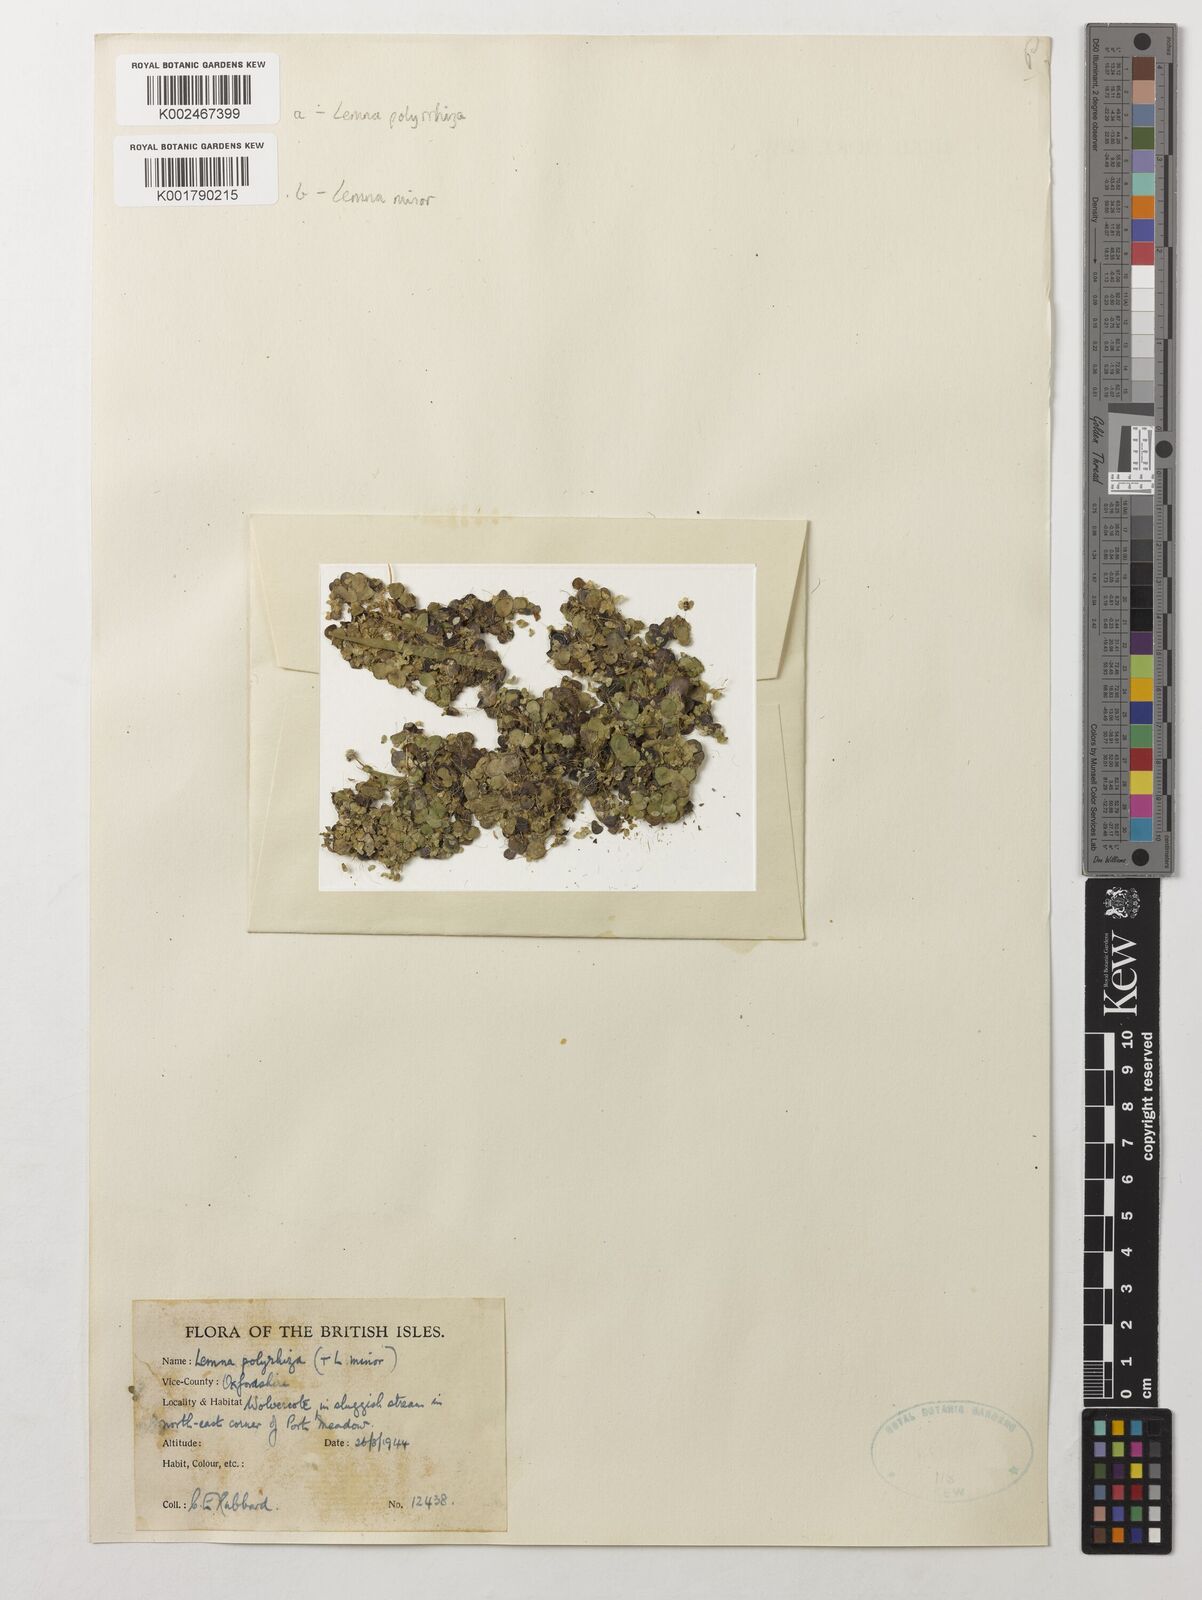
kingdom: Plantae
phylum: Tracheophyta
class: Liliopsida
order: Alismatales
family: Araceae
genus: Lemna
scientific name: Lemna minor
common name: Common duckweed
